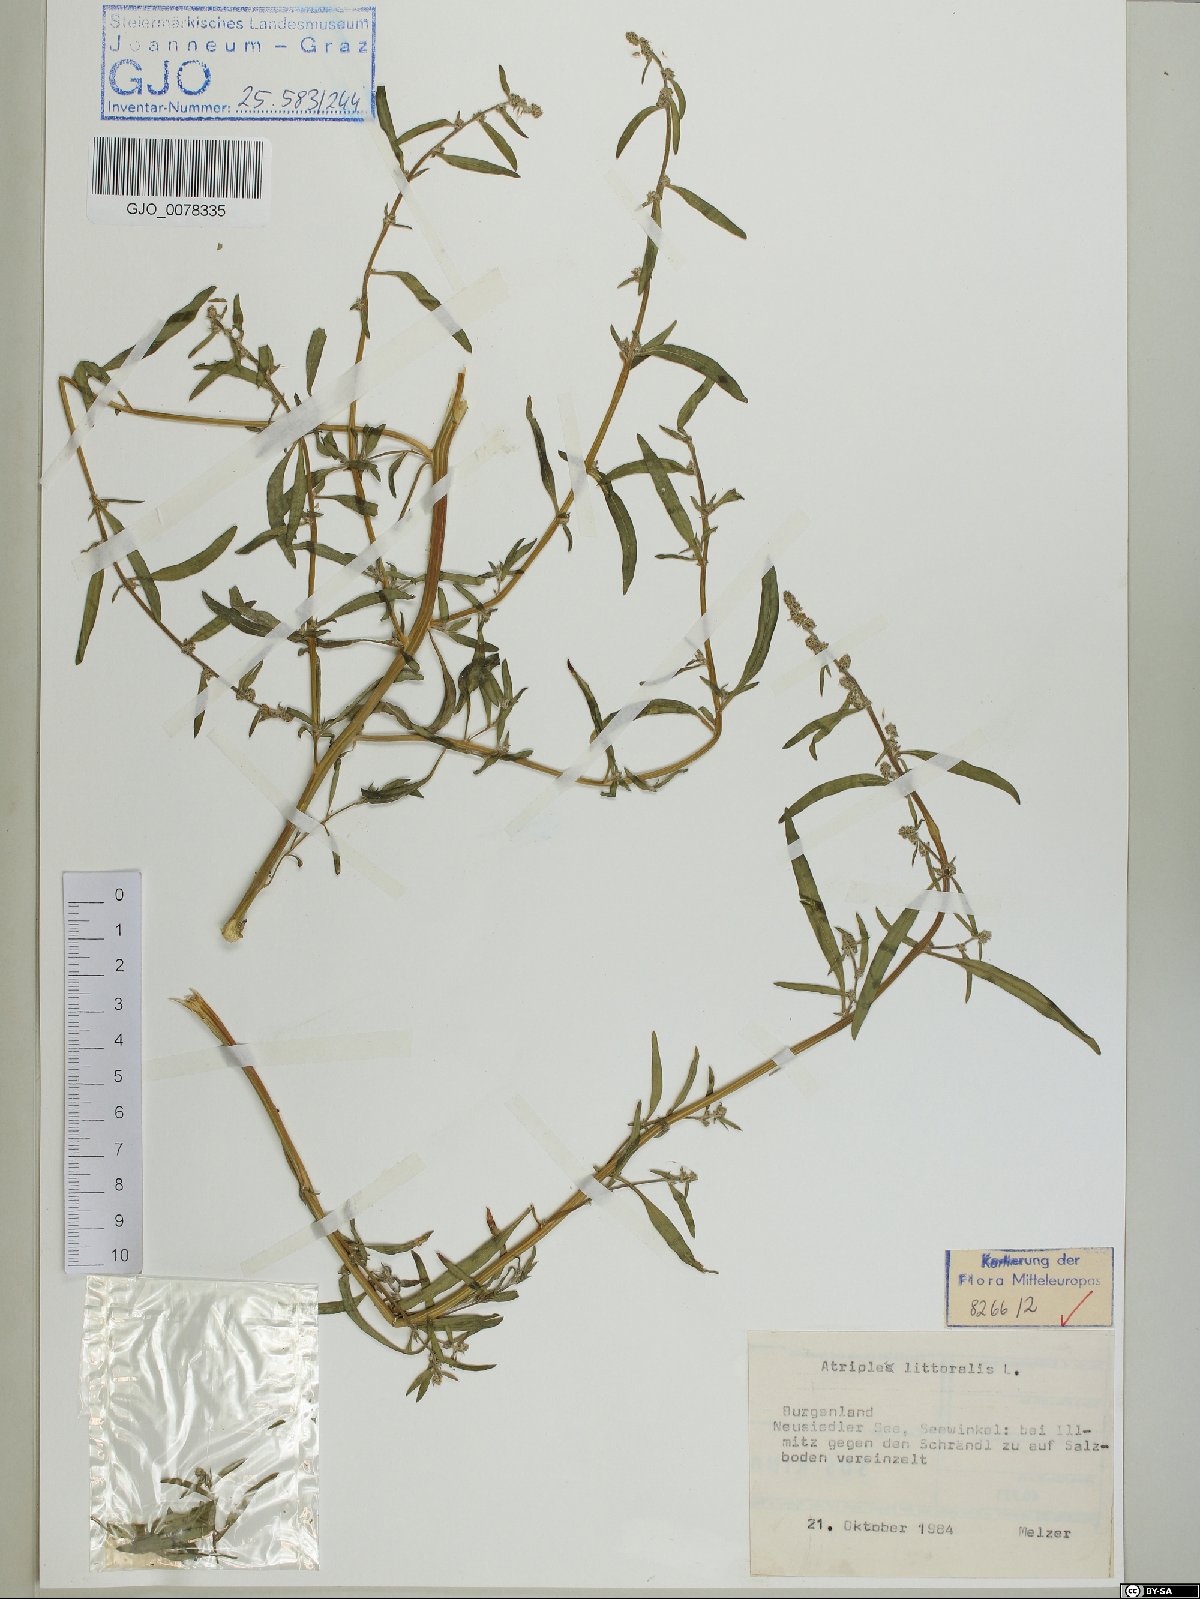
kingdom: Plantae
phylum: Tracheophyta
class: Magnoliopsida
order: Caryophyllales
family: Amaranthaceae
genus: Atriplex
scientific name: Atriplex littoralis
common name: Grass-leaved orache
